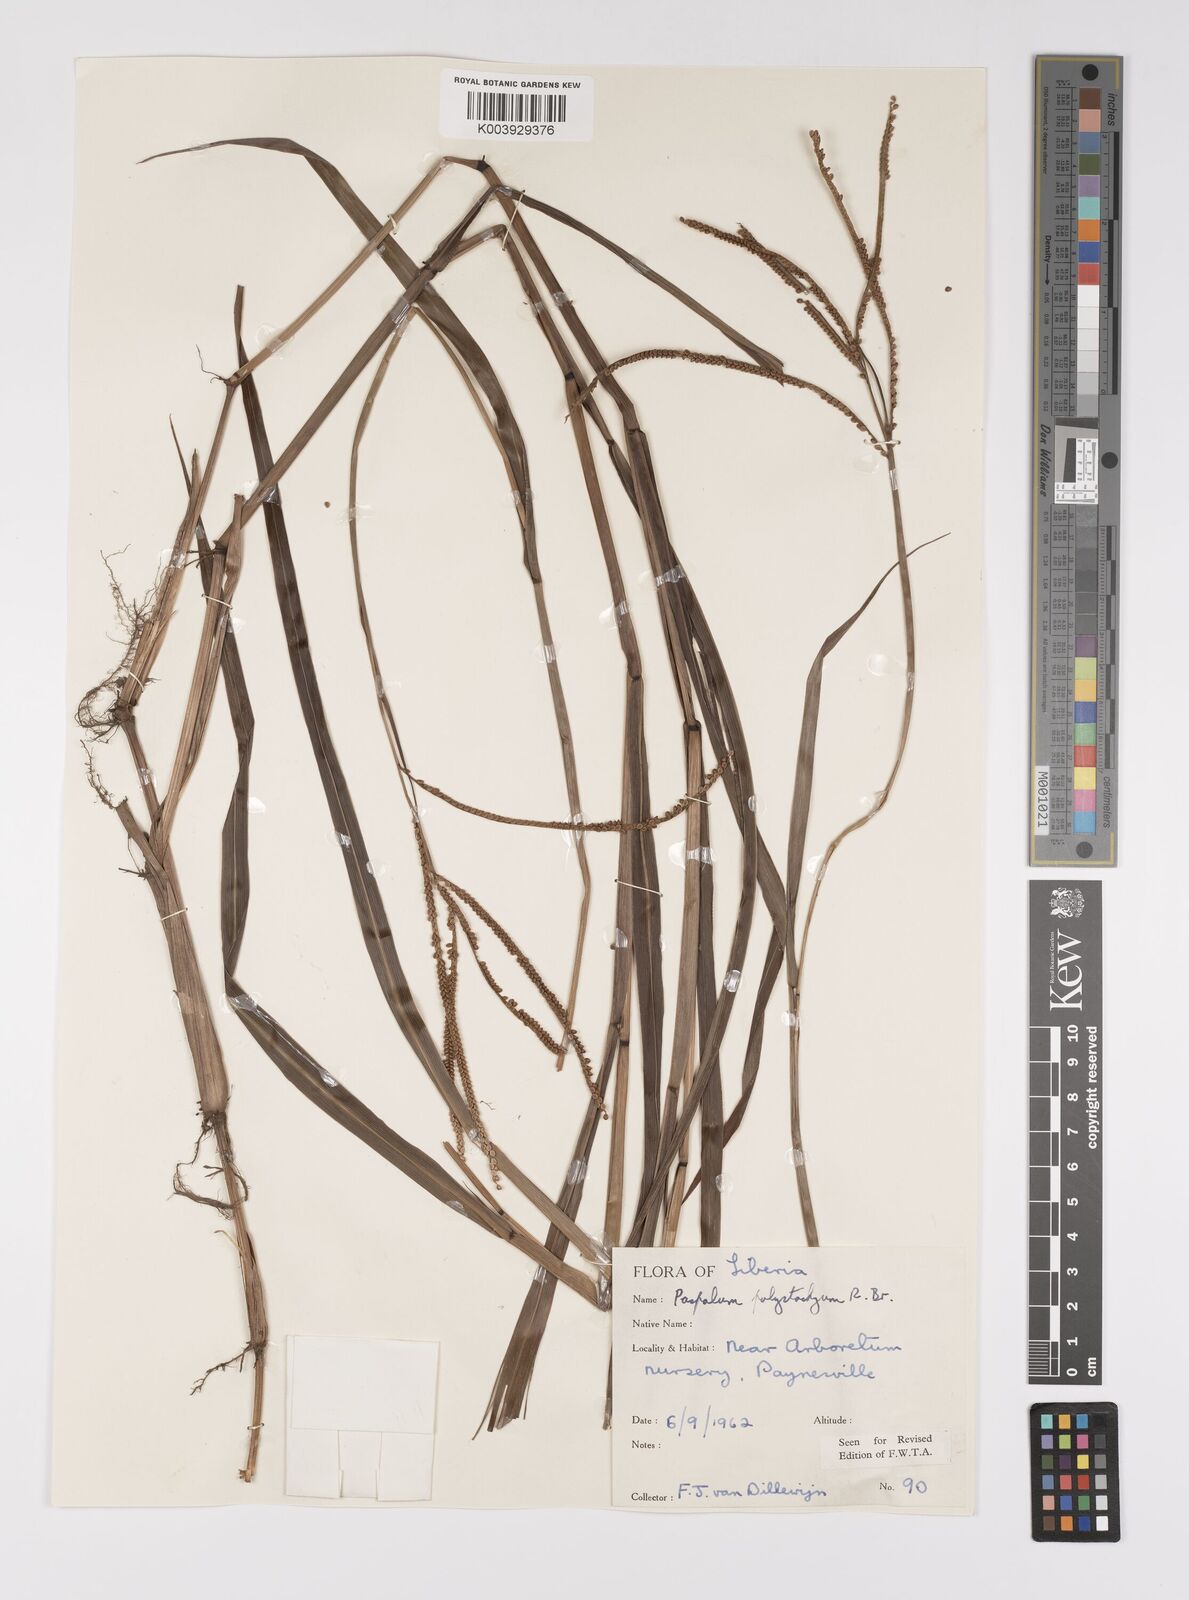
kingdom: Plantae
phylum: Tracheophyta
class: Liliopsida
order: Poales
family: Poaceae
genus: Paspalum
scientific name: Paspalum scrobiculatum
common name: Kodo millet
